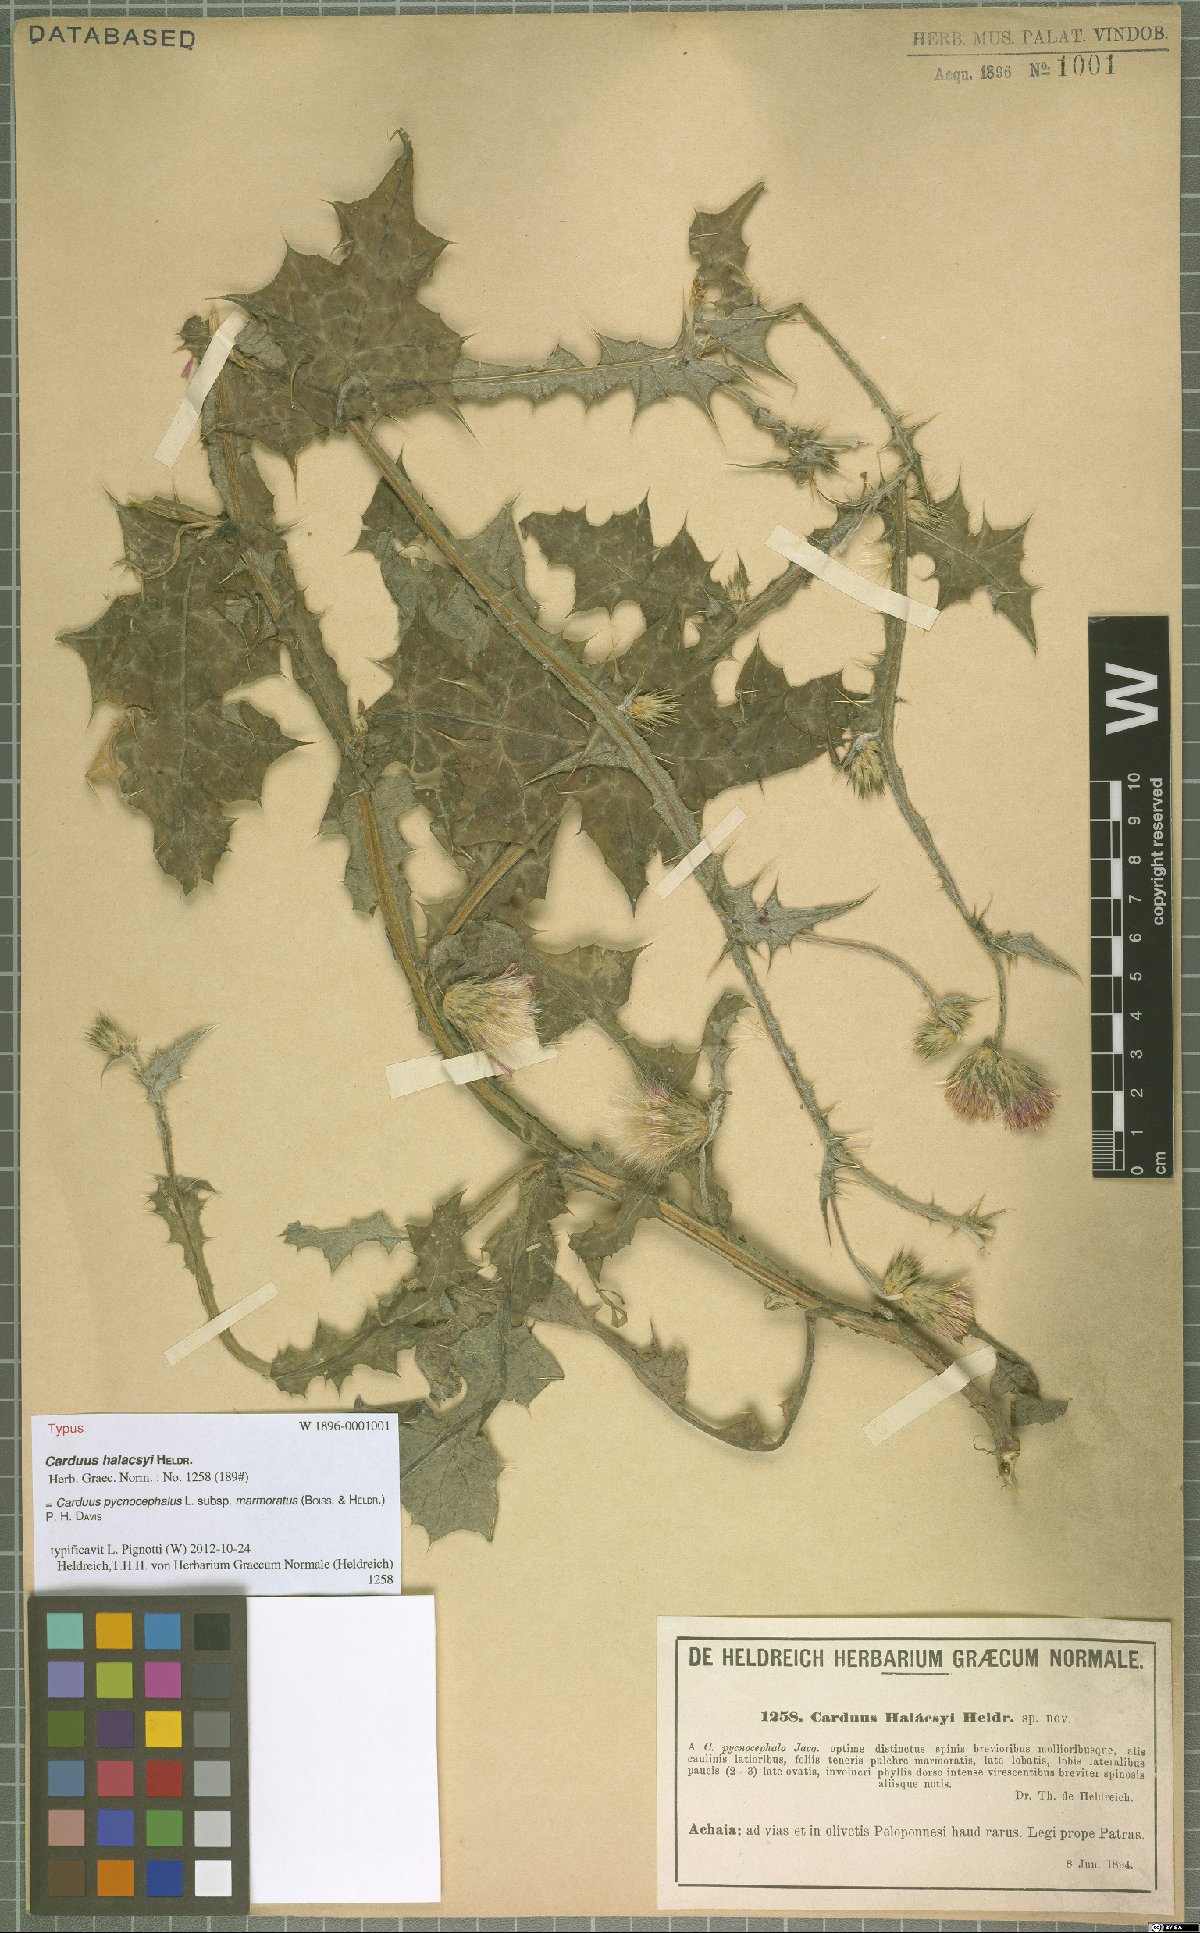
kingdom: Plantae
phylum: Tracheophyta
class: Magnoliopsida
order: Asterales
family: Asteraceae
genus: Carduus
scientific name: Carduus arabicus
